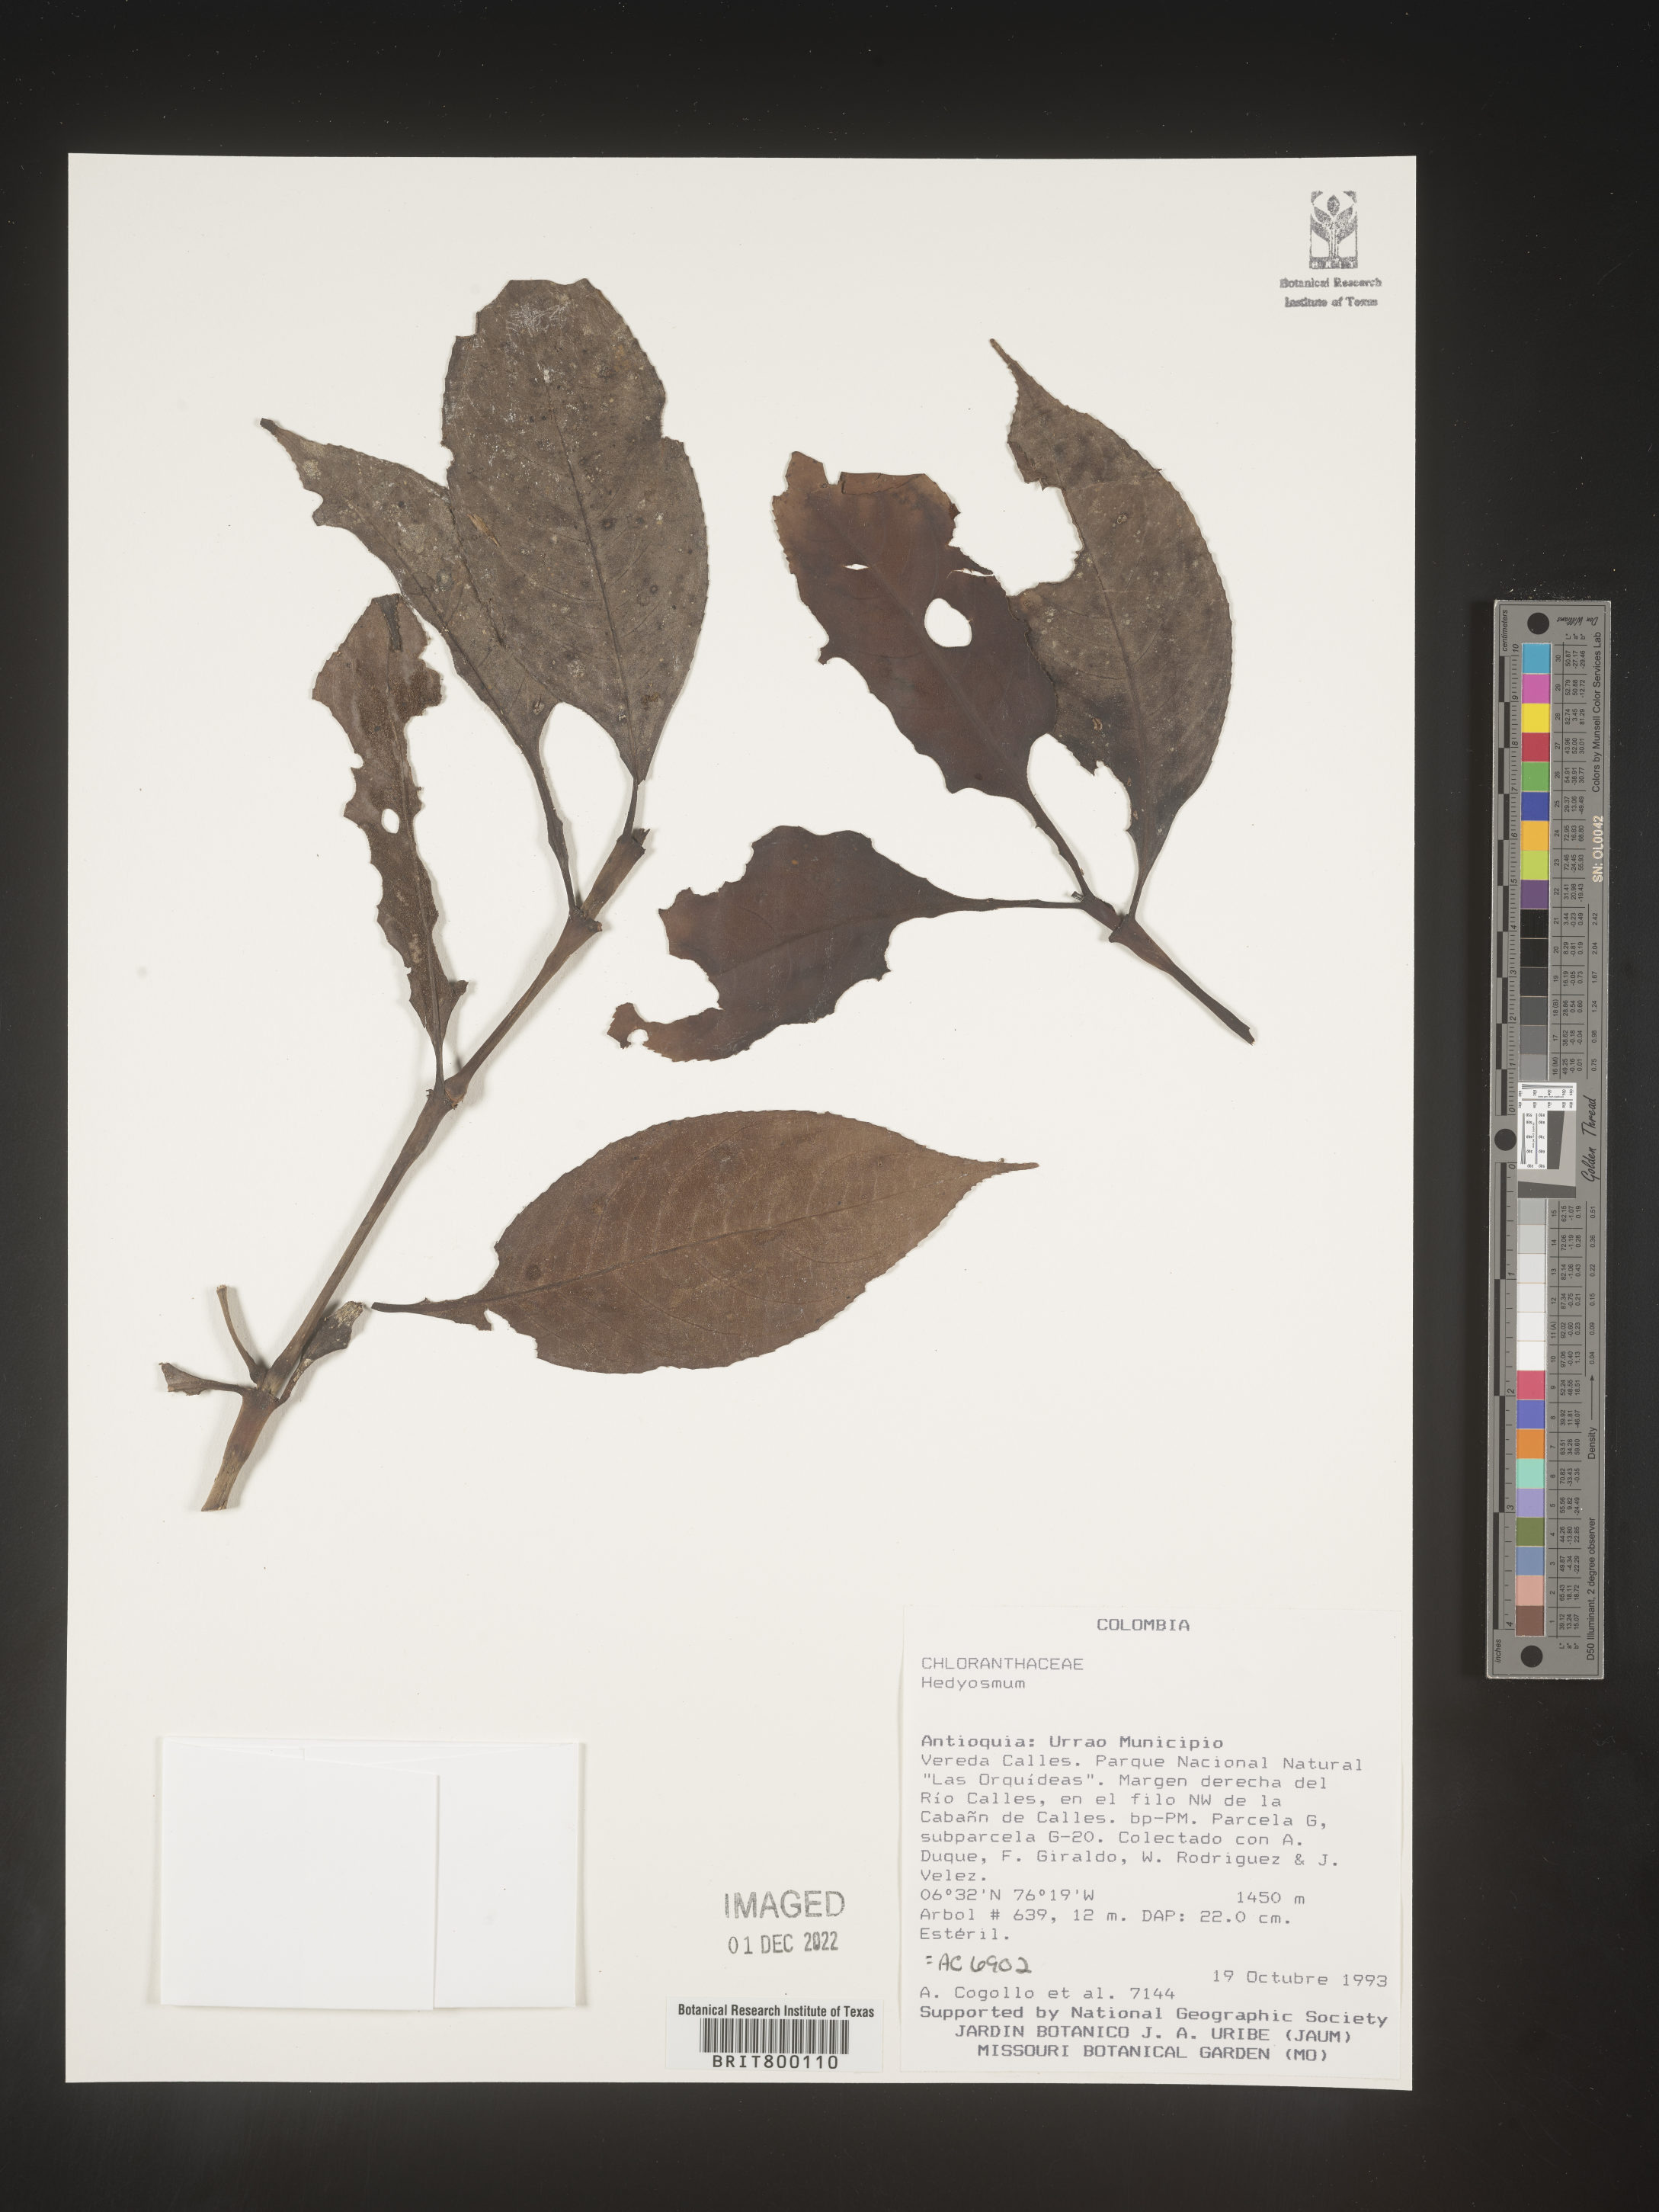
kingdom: Plantae
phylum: Tracheophyta
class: Magnoliopsida
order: Chloranthales
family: Chloranthaceae
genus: Hedyosmum
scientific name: Hedyosmum
